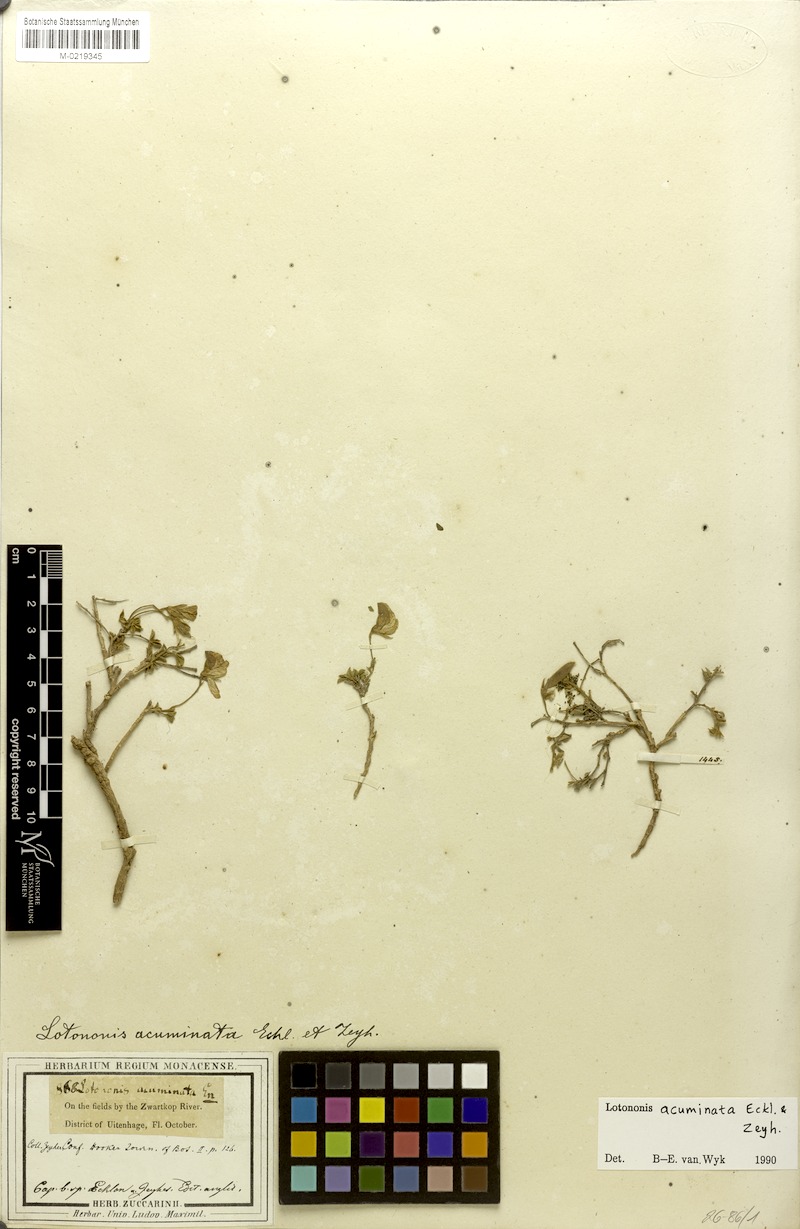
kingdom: Plantae
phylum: Tracheophyta
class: Magnoliopsida
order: Fabales
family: Fabaceae
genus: Lotononis
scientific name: Lotononis acuminata
